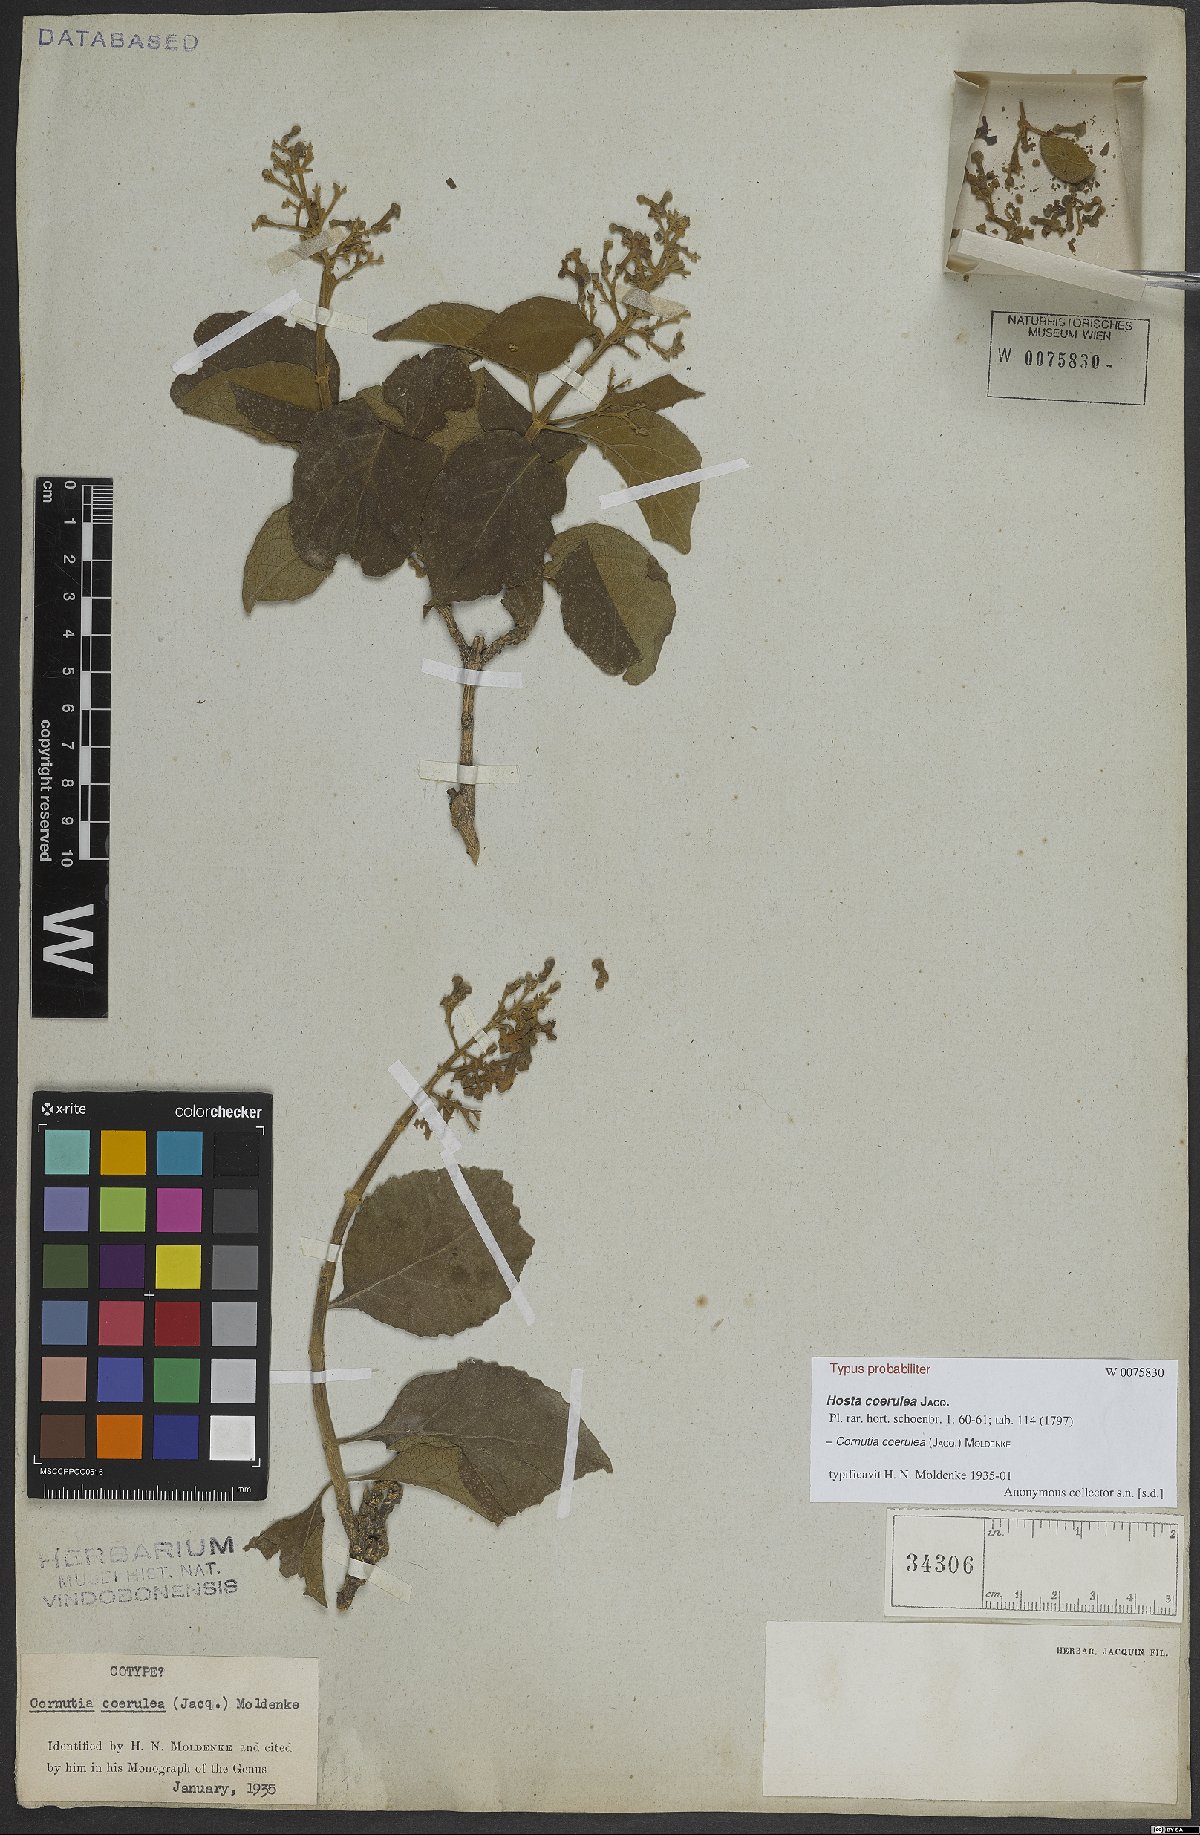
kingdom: Plantae
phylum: Tracheophyta
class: Magnoliopsida
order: Lamiales
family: Lamiaceae
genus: Cornutia
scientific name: Cornutia coerulea
